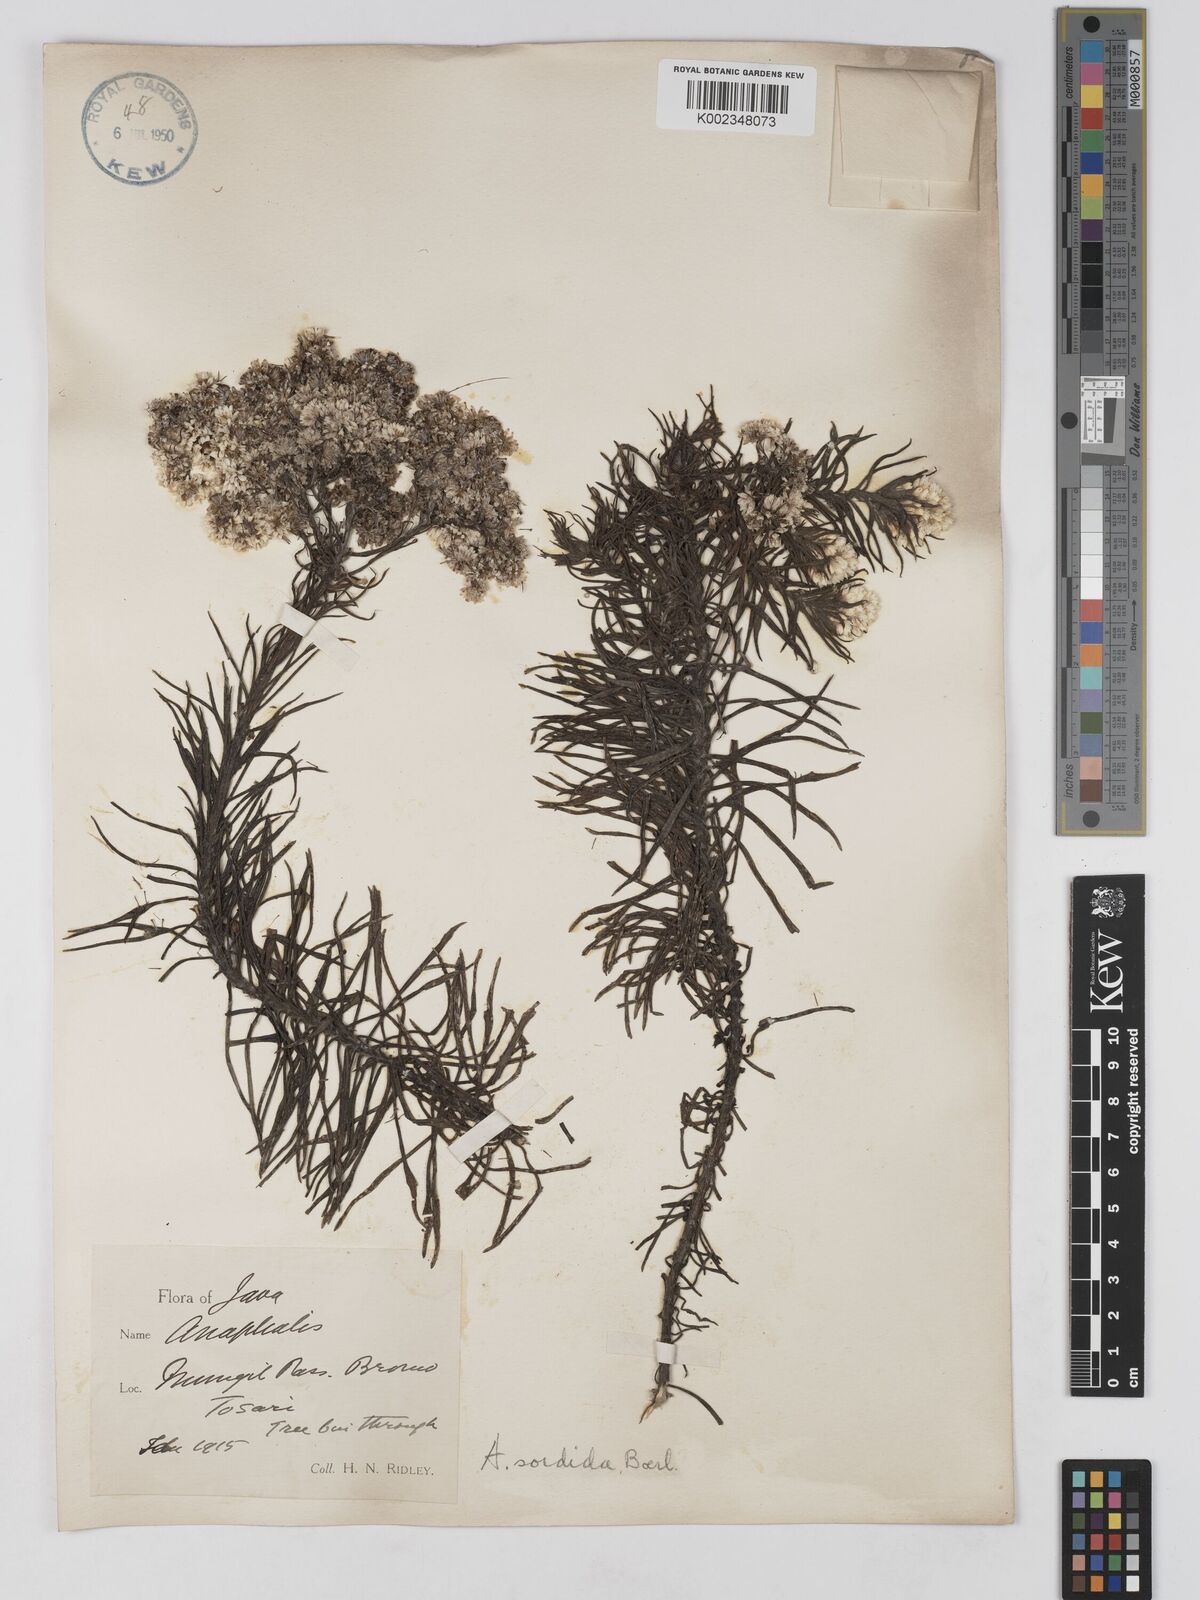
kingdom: Plantae
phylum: Tracheophyta
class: Magnoliopsida
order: Asterales
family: Asteraceae
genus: Anaphalis
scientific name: Anaphalis viscida
